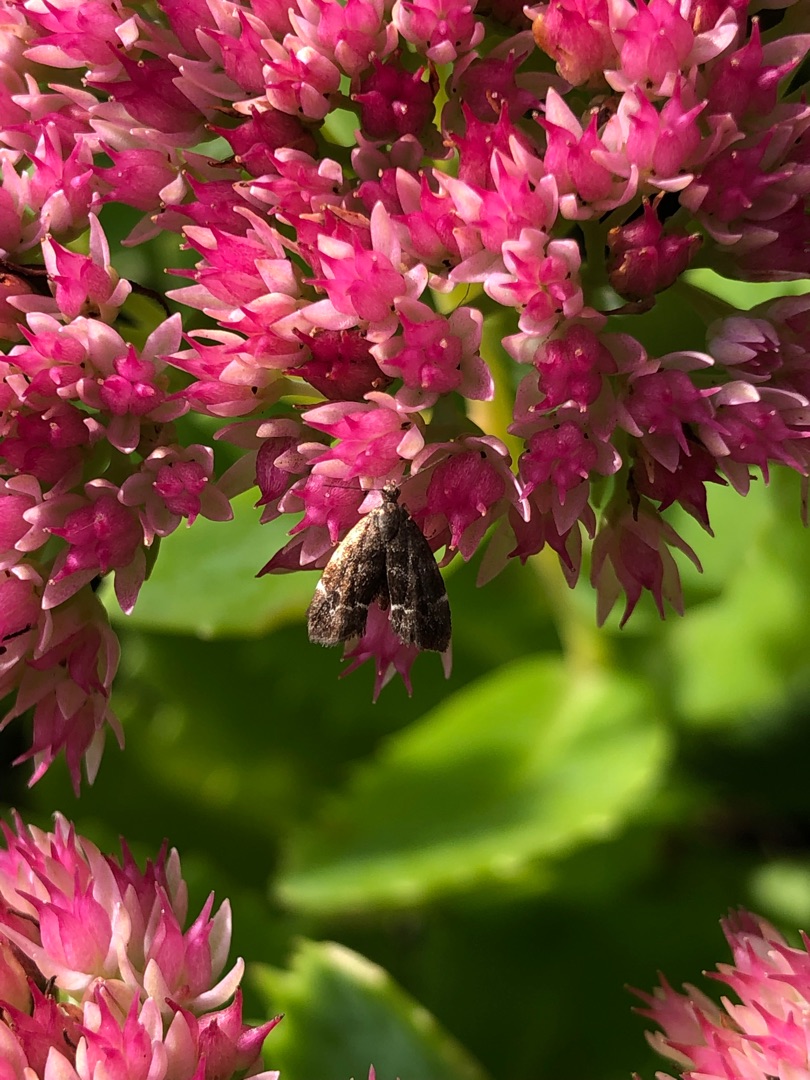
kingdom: Animalia
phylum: Arthropoda
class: Insecta
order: Lepidoptera
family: Choreutidae
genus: Anthophila
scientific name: Anthophila fabriciana
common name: Bredvinget nældevikler
